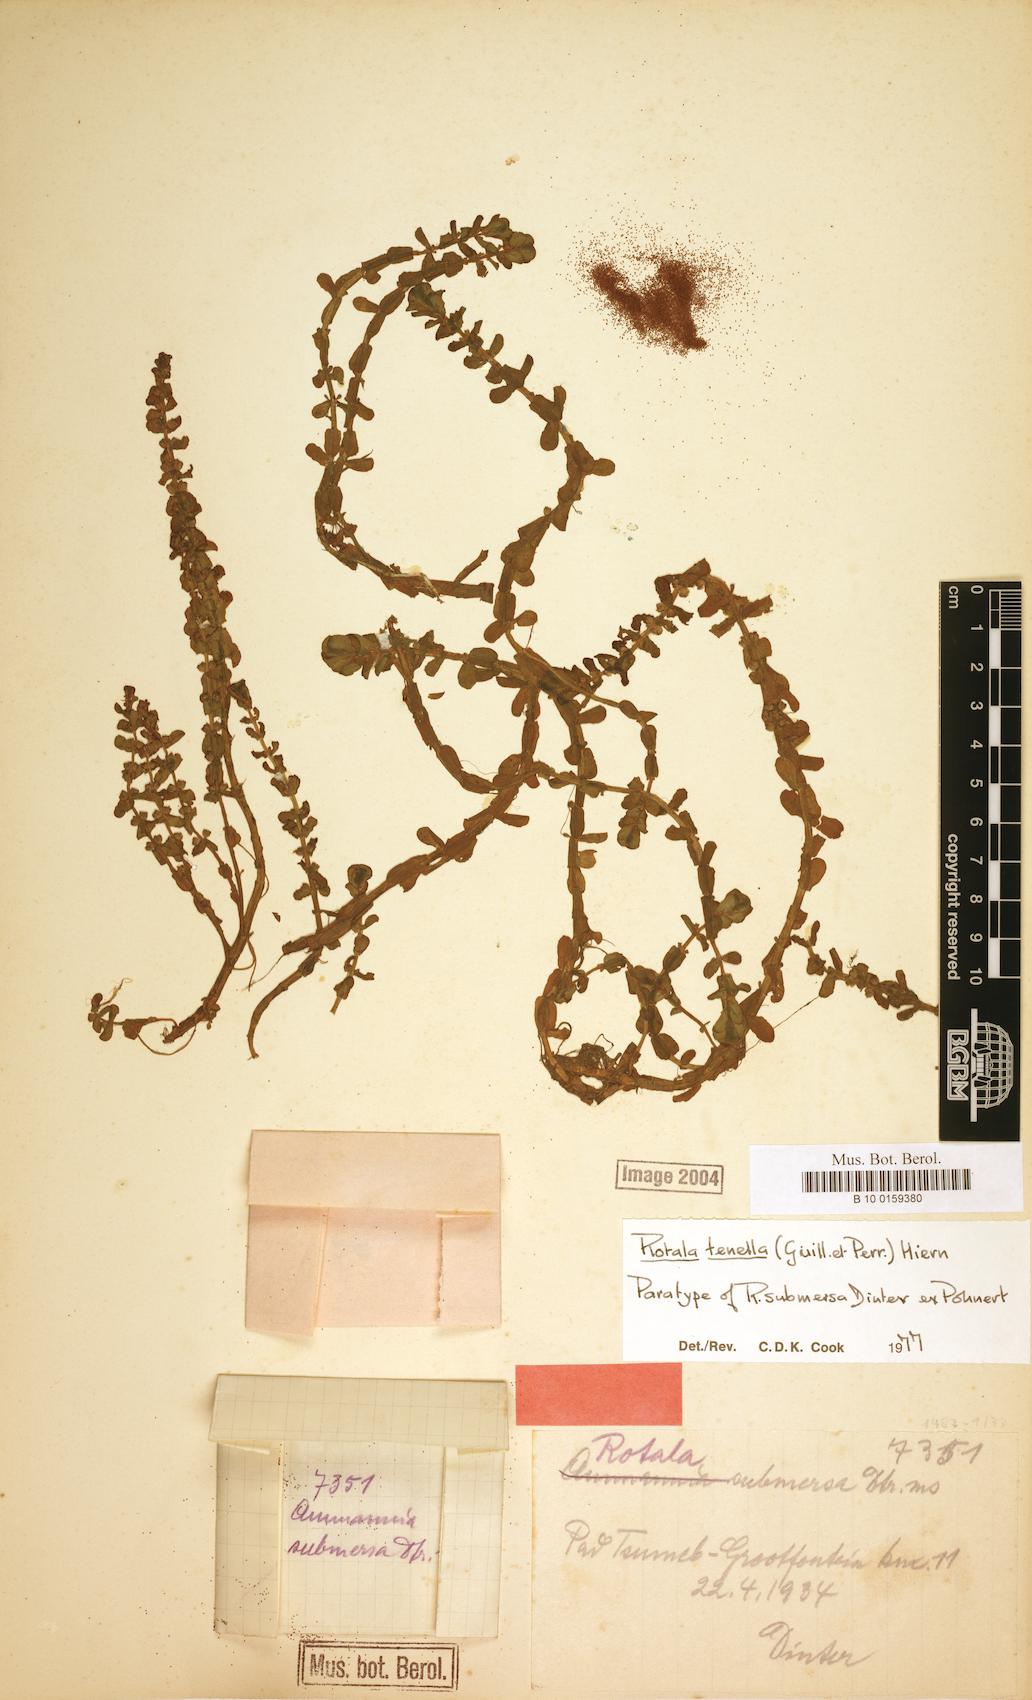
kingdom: Plantae
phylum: Tracheophyta
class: Magnoliopsida
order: Myrtales
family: Lythraceae
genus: Rotala
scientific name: Rotala tenella
